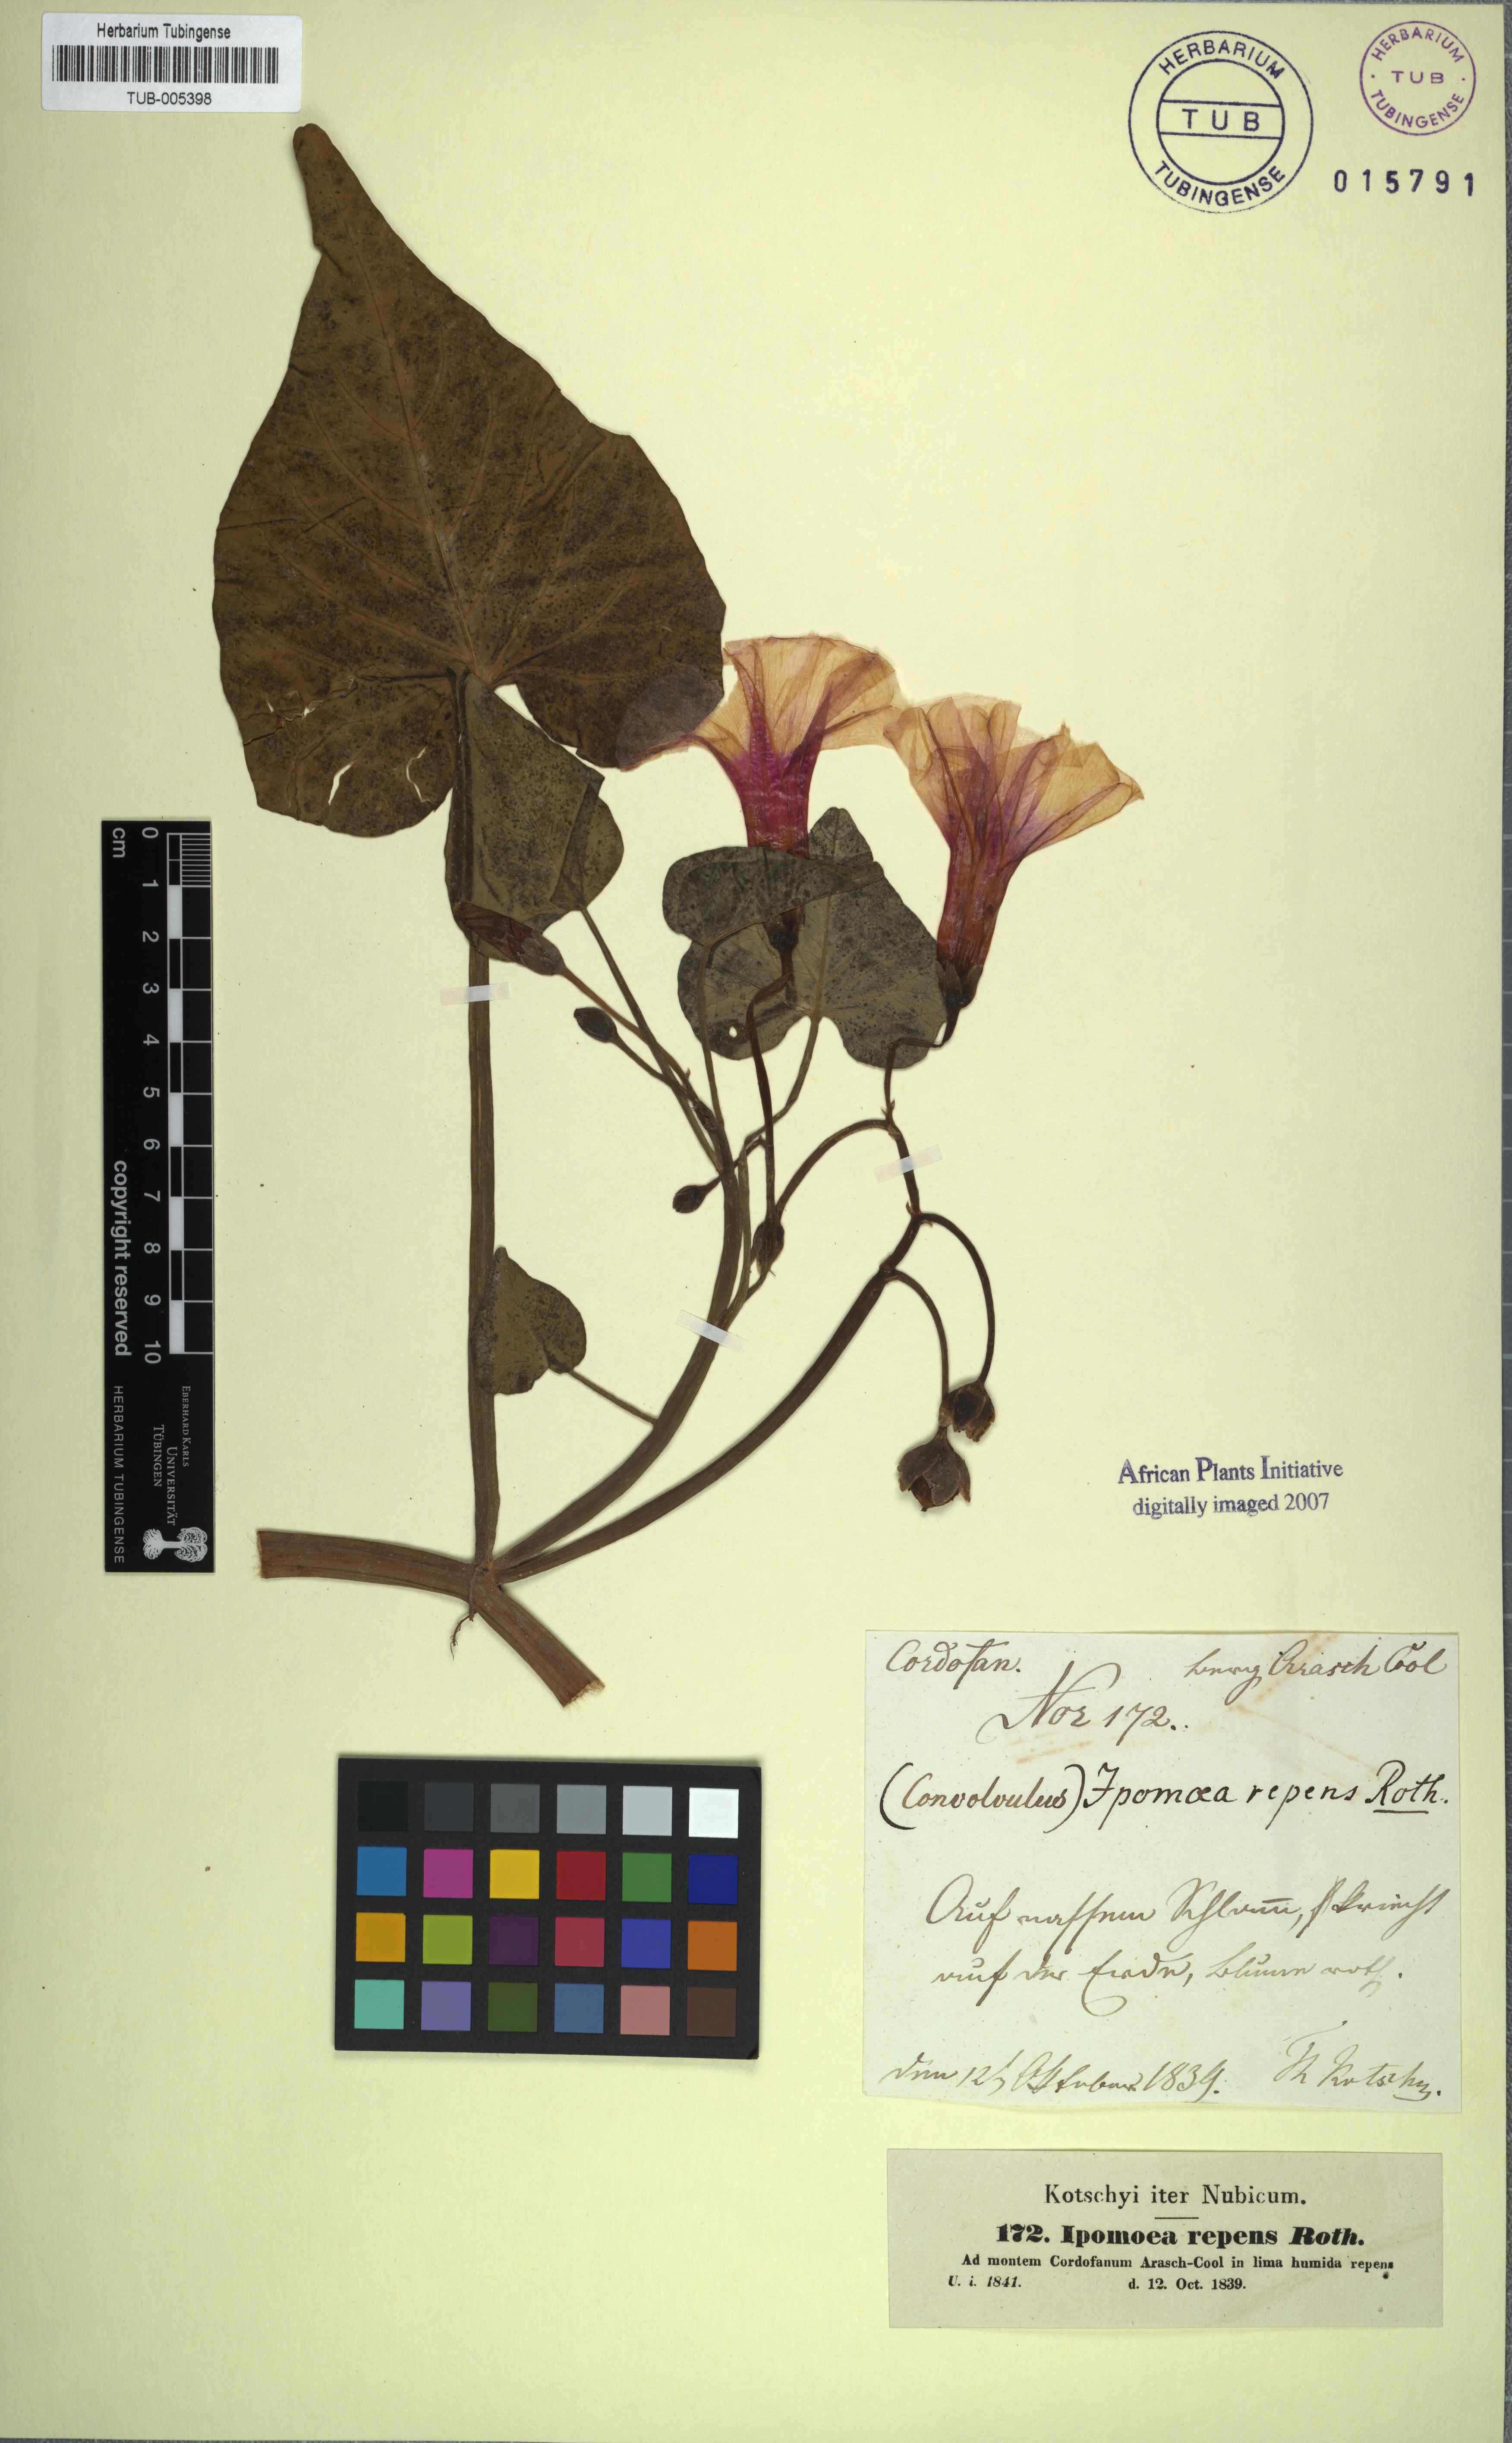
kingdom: Plantae
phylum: Tracheophyta
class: Magnoliopsida
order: Solanales
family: Convolvulaceae
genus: Ipomoea
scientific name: Ipomoea aquatica
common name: Swamp morning-glory
